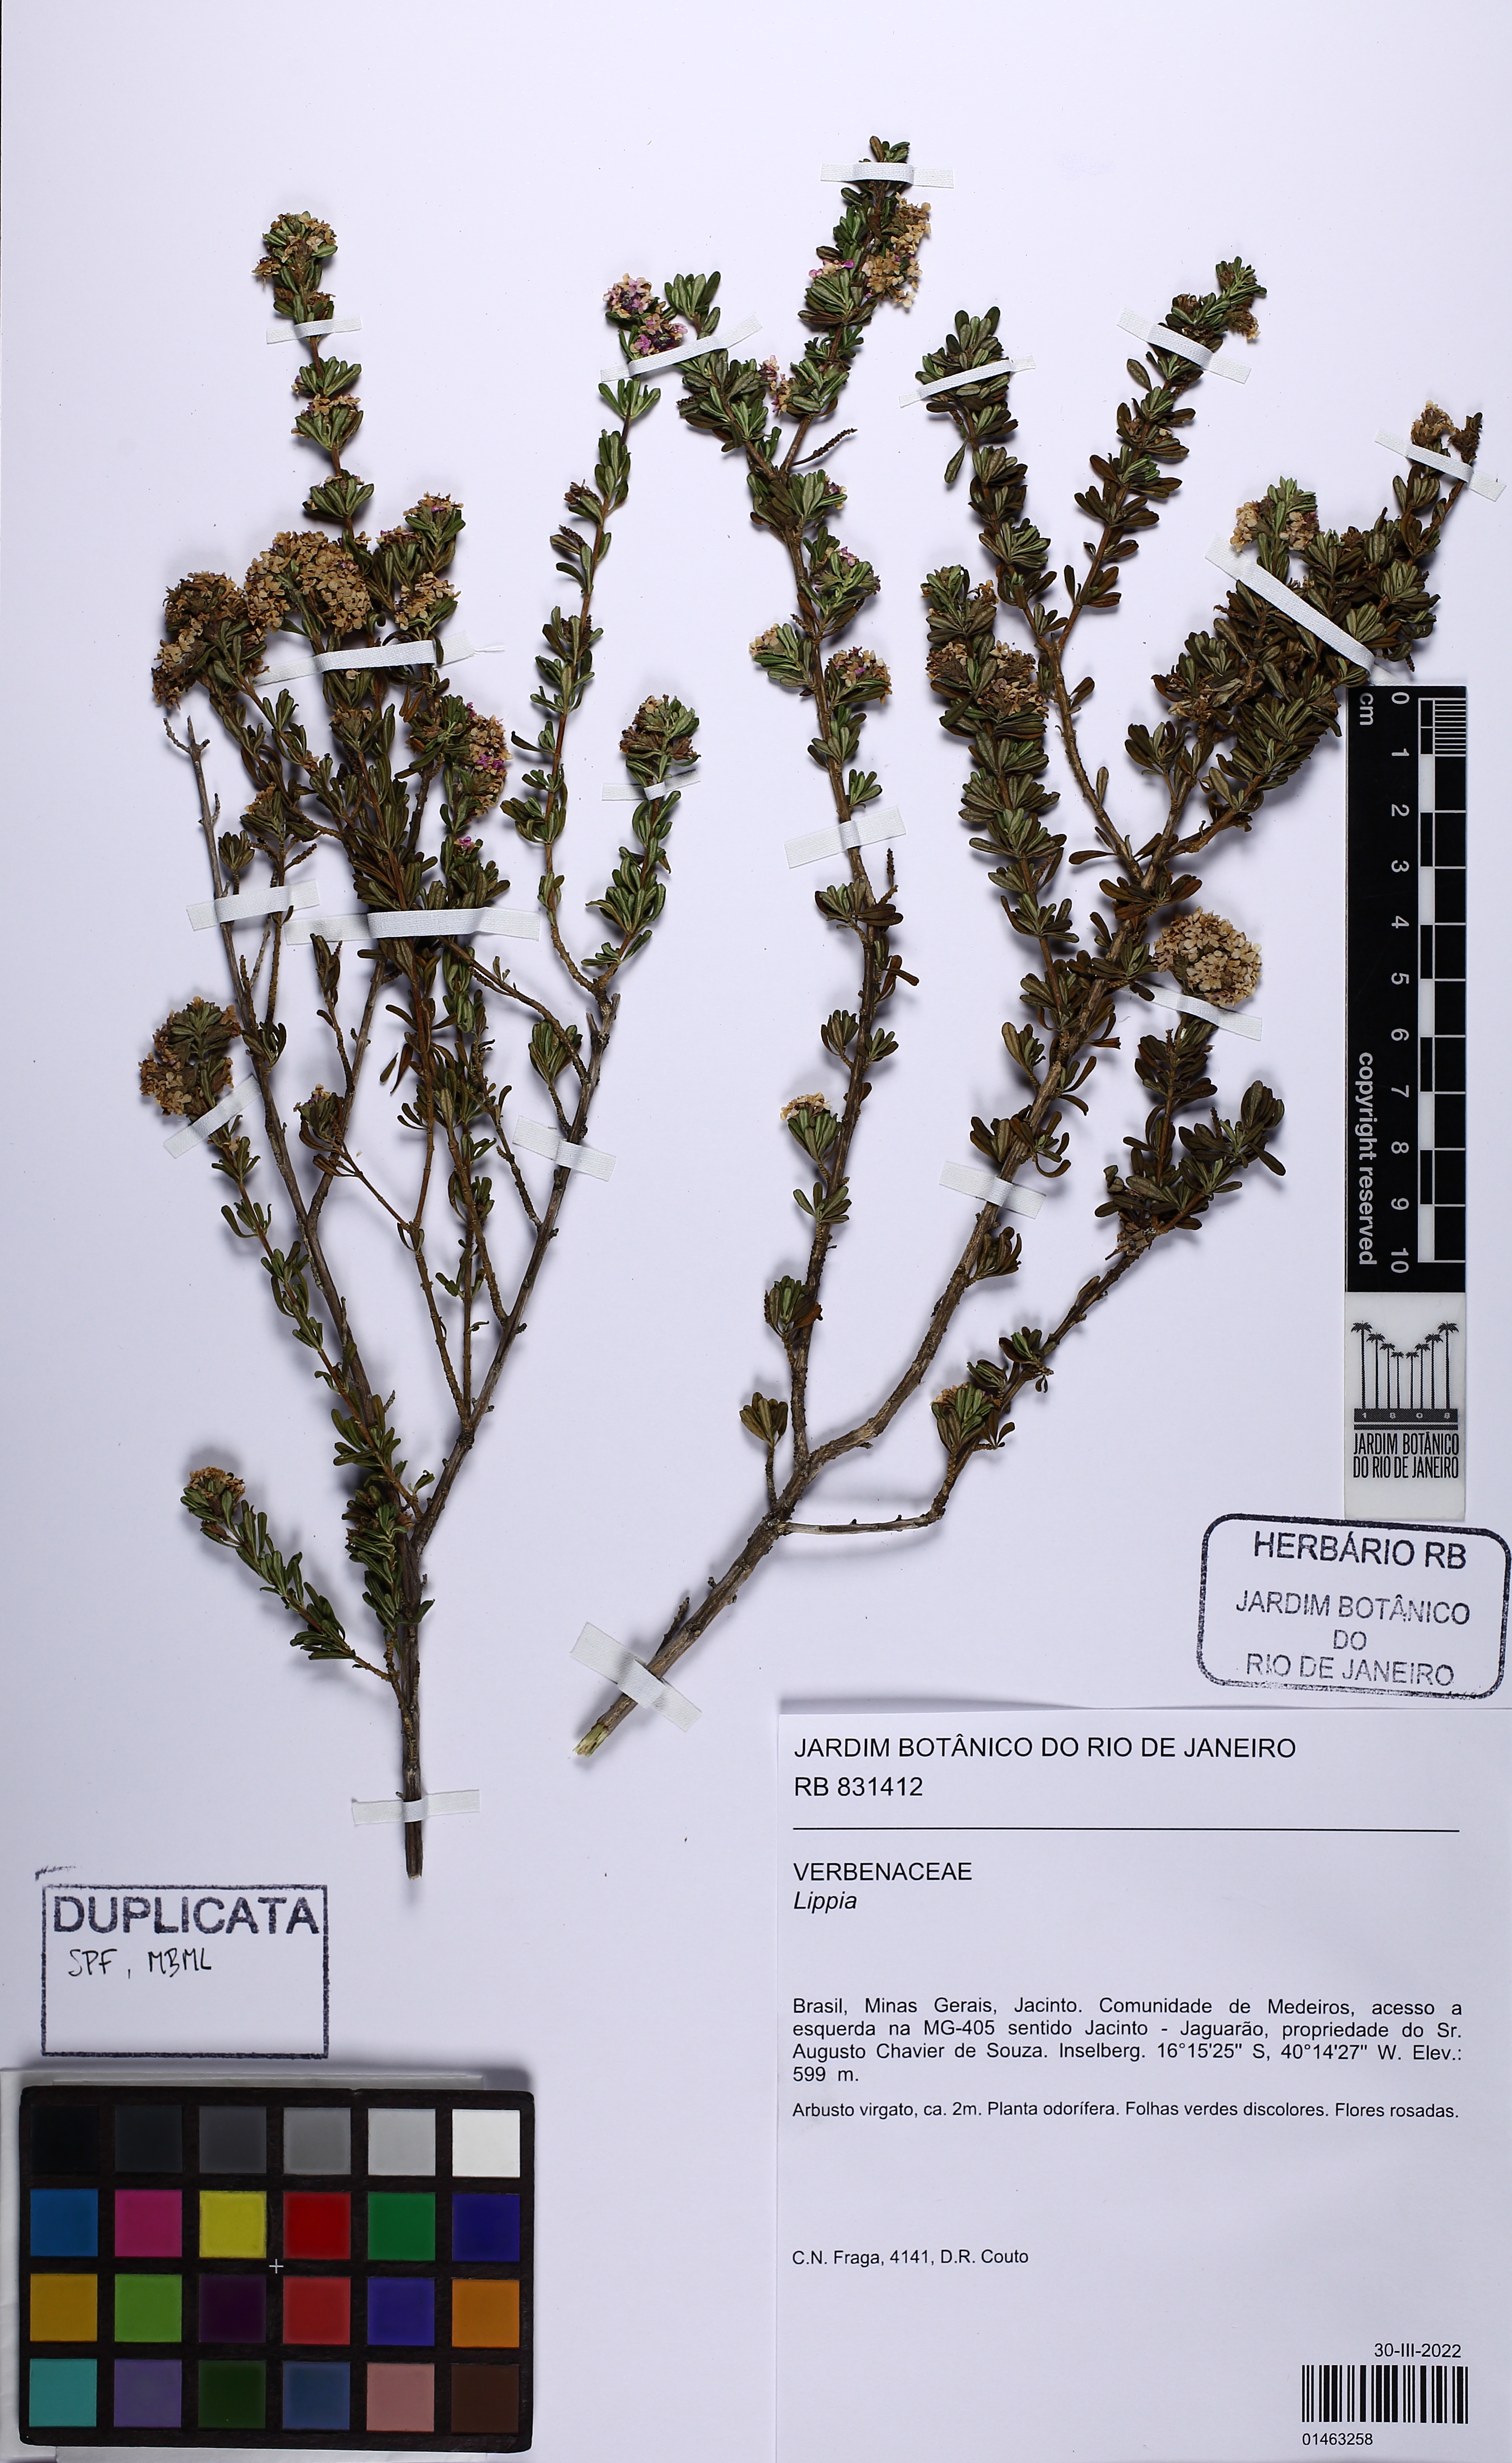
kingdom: Plantae
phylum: Tracheophyta
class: Magnoliopsida
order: Lamiales
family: Verbenaceae
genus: Lippia
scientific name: Lippia
